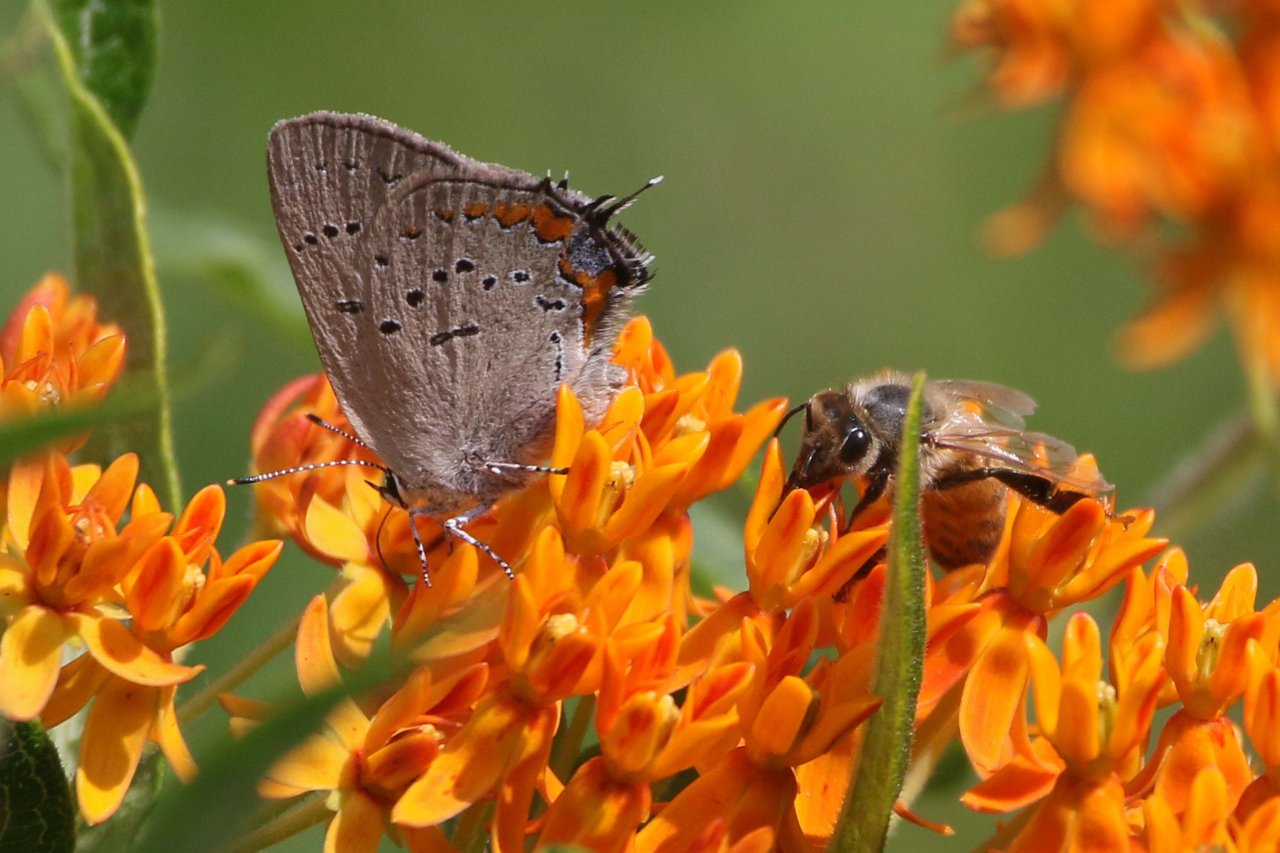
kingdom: Animalia
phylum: Arthropoda
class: Insecta
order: Lepidoptera
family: Lycaenidae
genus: Strymon
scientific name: Strymon acadica
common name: Acadian Hairstreak
